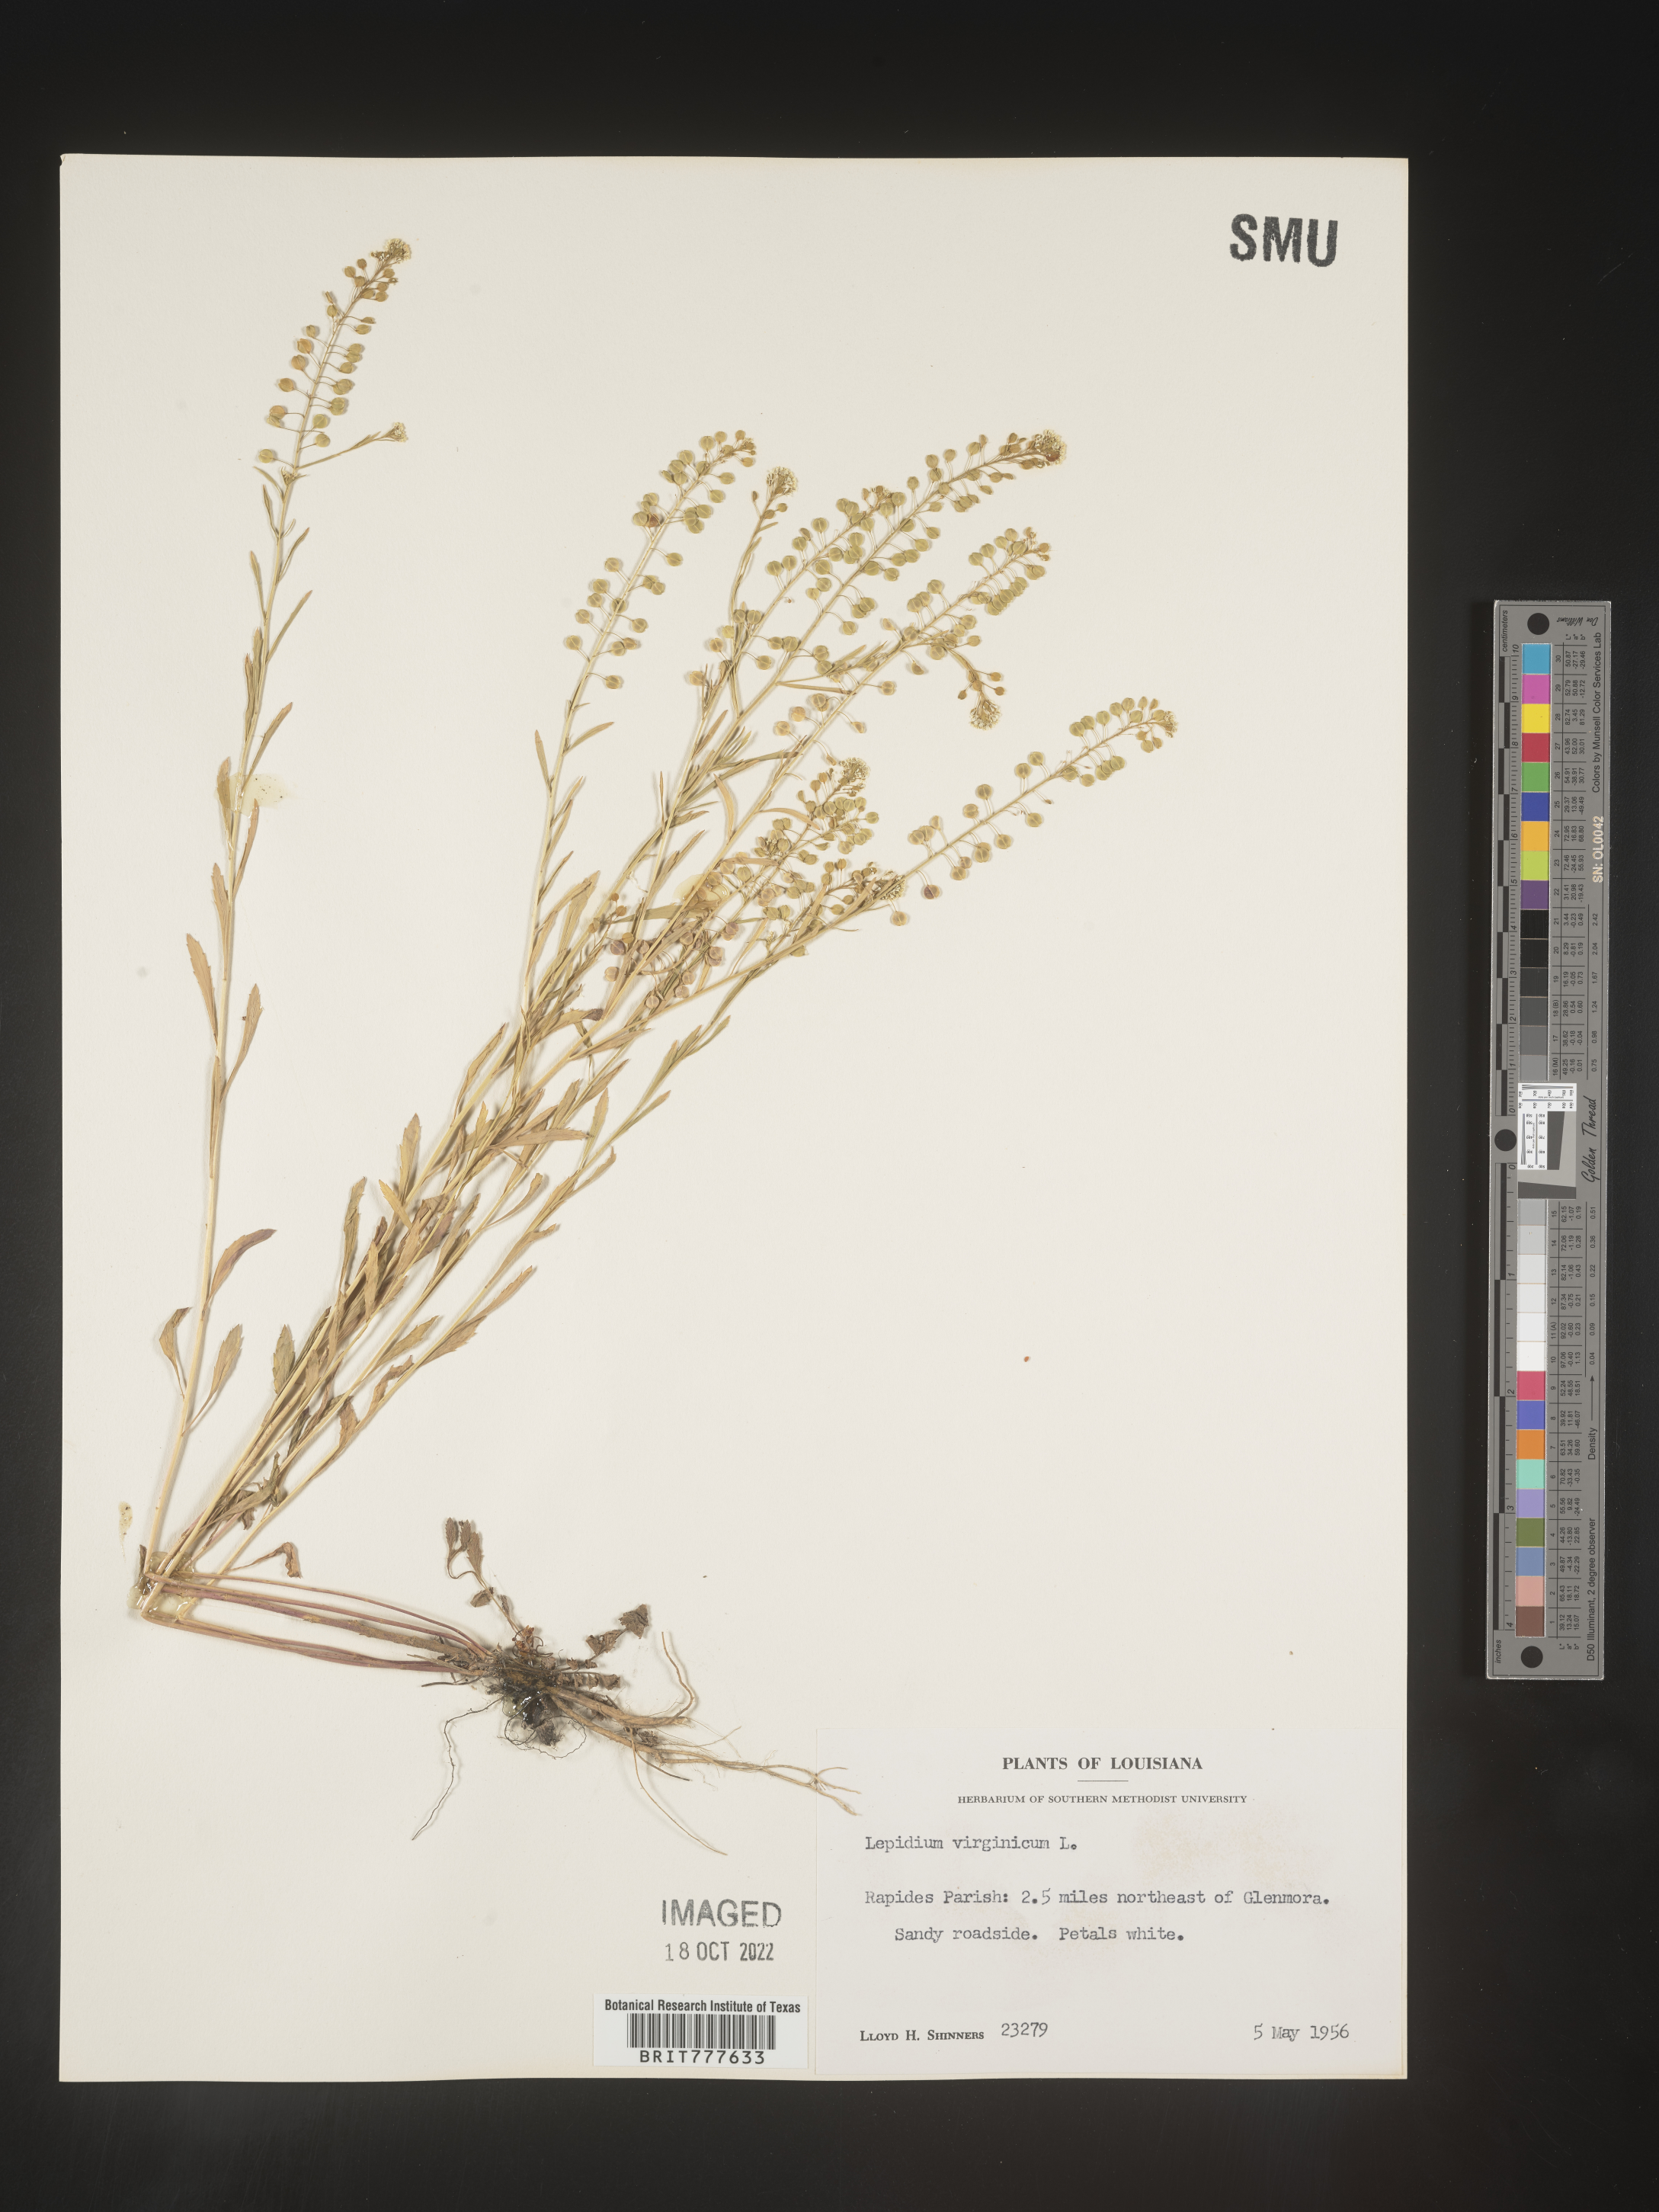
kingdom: Plantae
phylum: Tracheophyta
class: Magnoliopsida
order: Brassicales
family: Brassicaceae
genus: Lepidium
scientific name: Lepidium virginicum
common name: Least pepperwort
